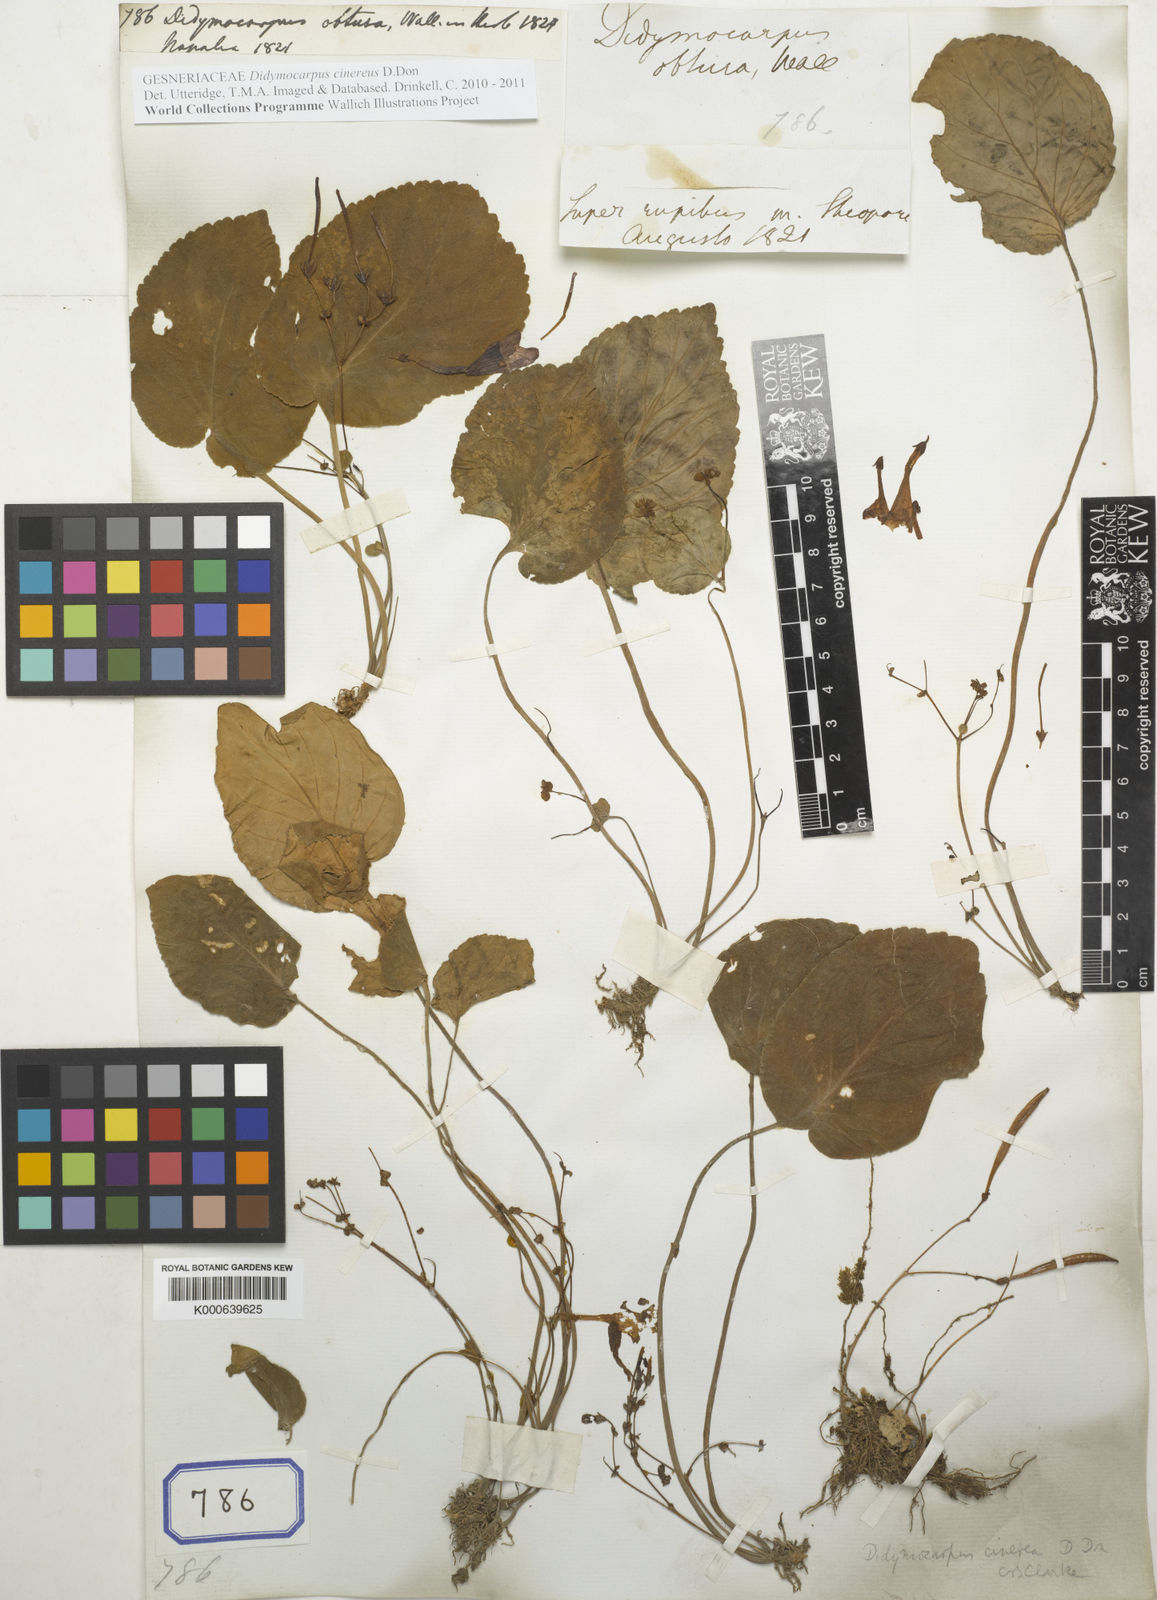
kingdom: Plantae
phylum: Tracheophyta
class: Magnoliopsida
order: Lamiales
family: Gesneriaceae
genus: Didymocarpus
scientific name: Didymocarpus
